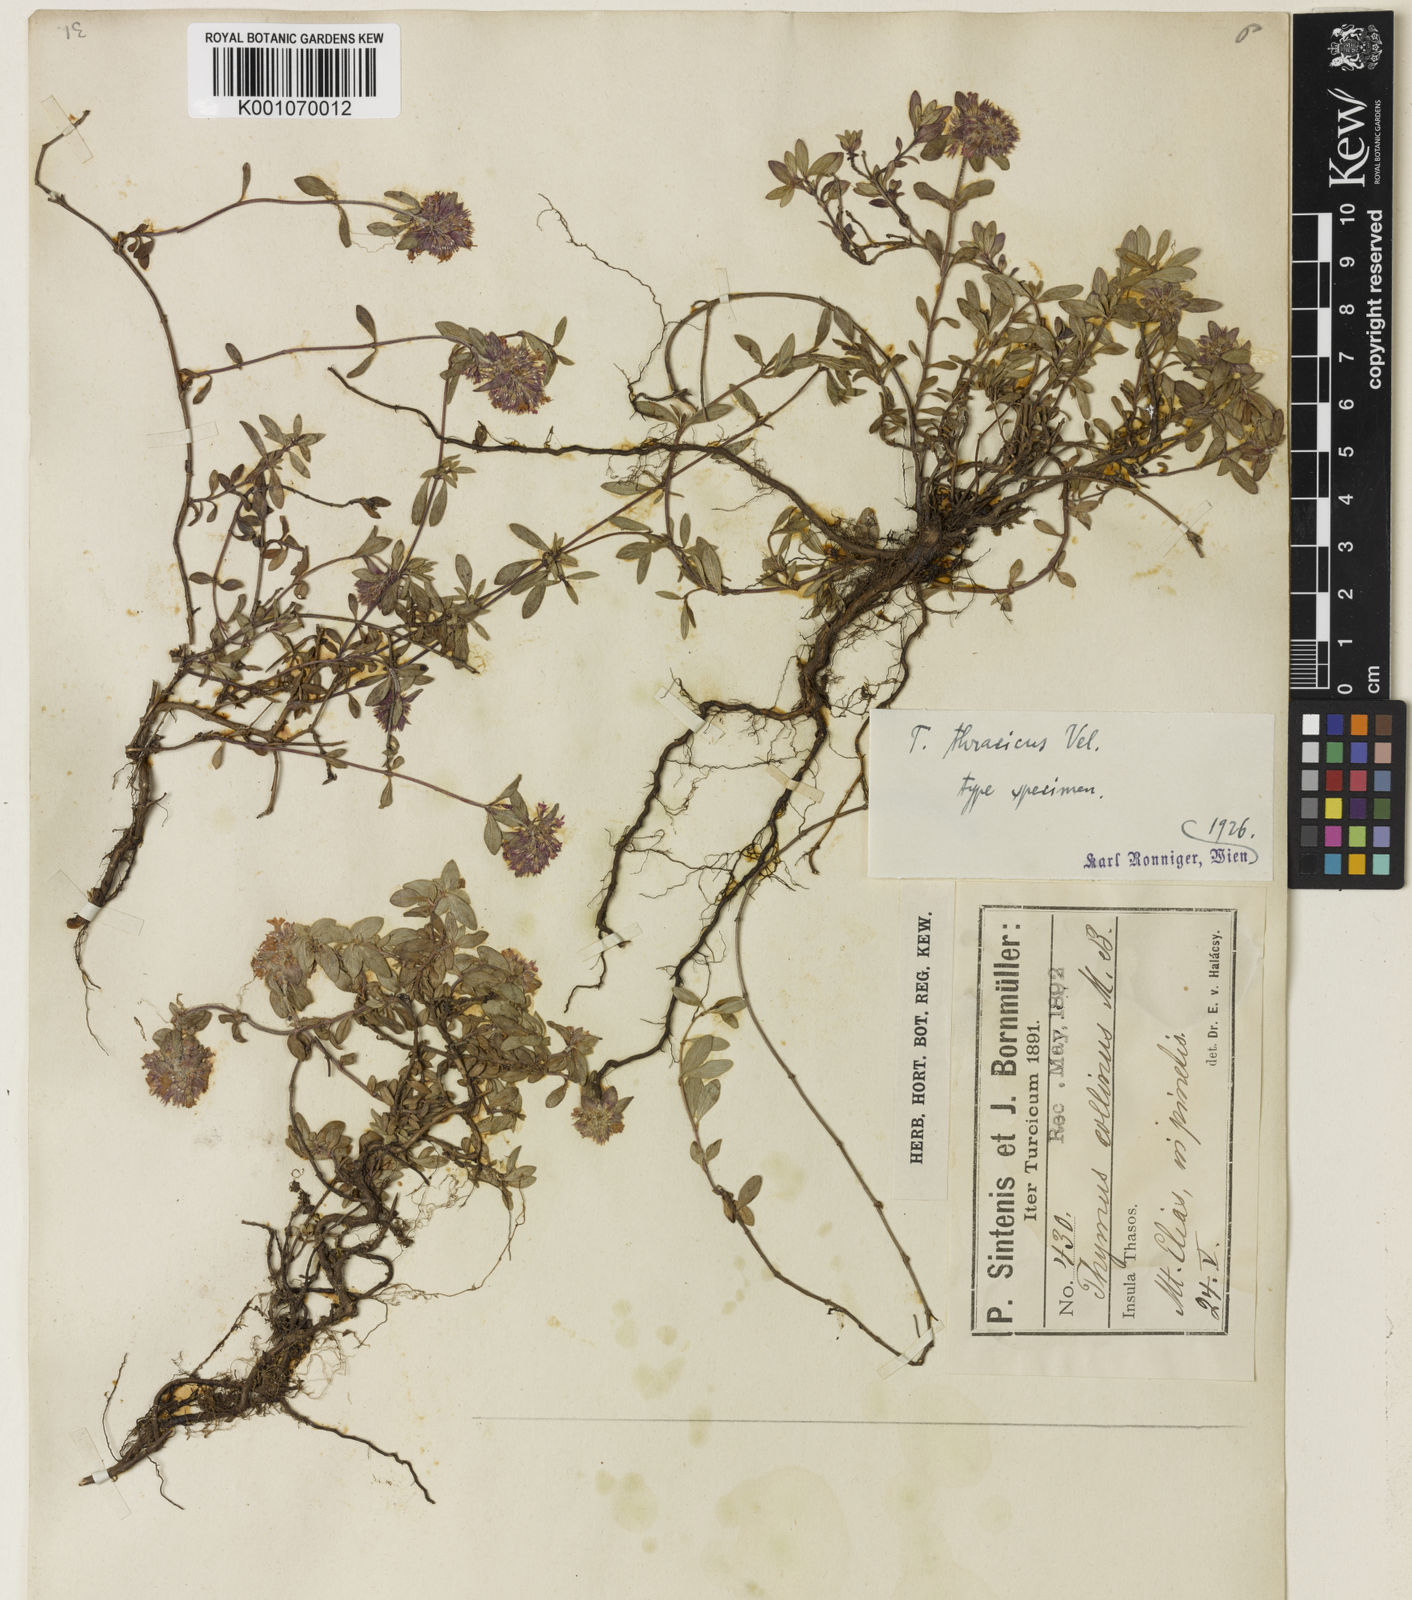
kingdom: Plantae
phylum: Tracheophyta
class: Magnoliopsida
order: Lamiales
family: Lamiaceae
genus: Thymus
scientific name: Thymus thracicus
